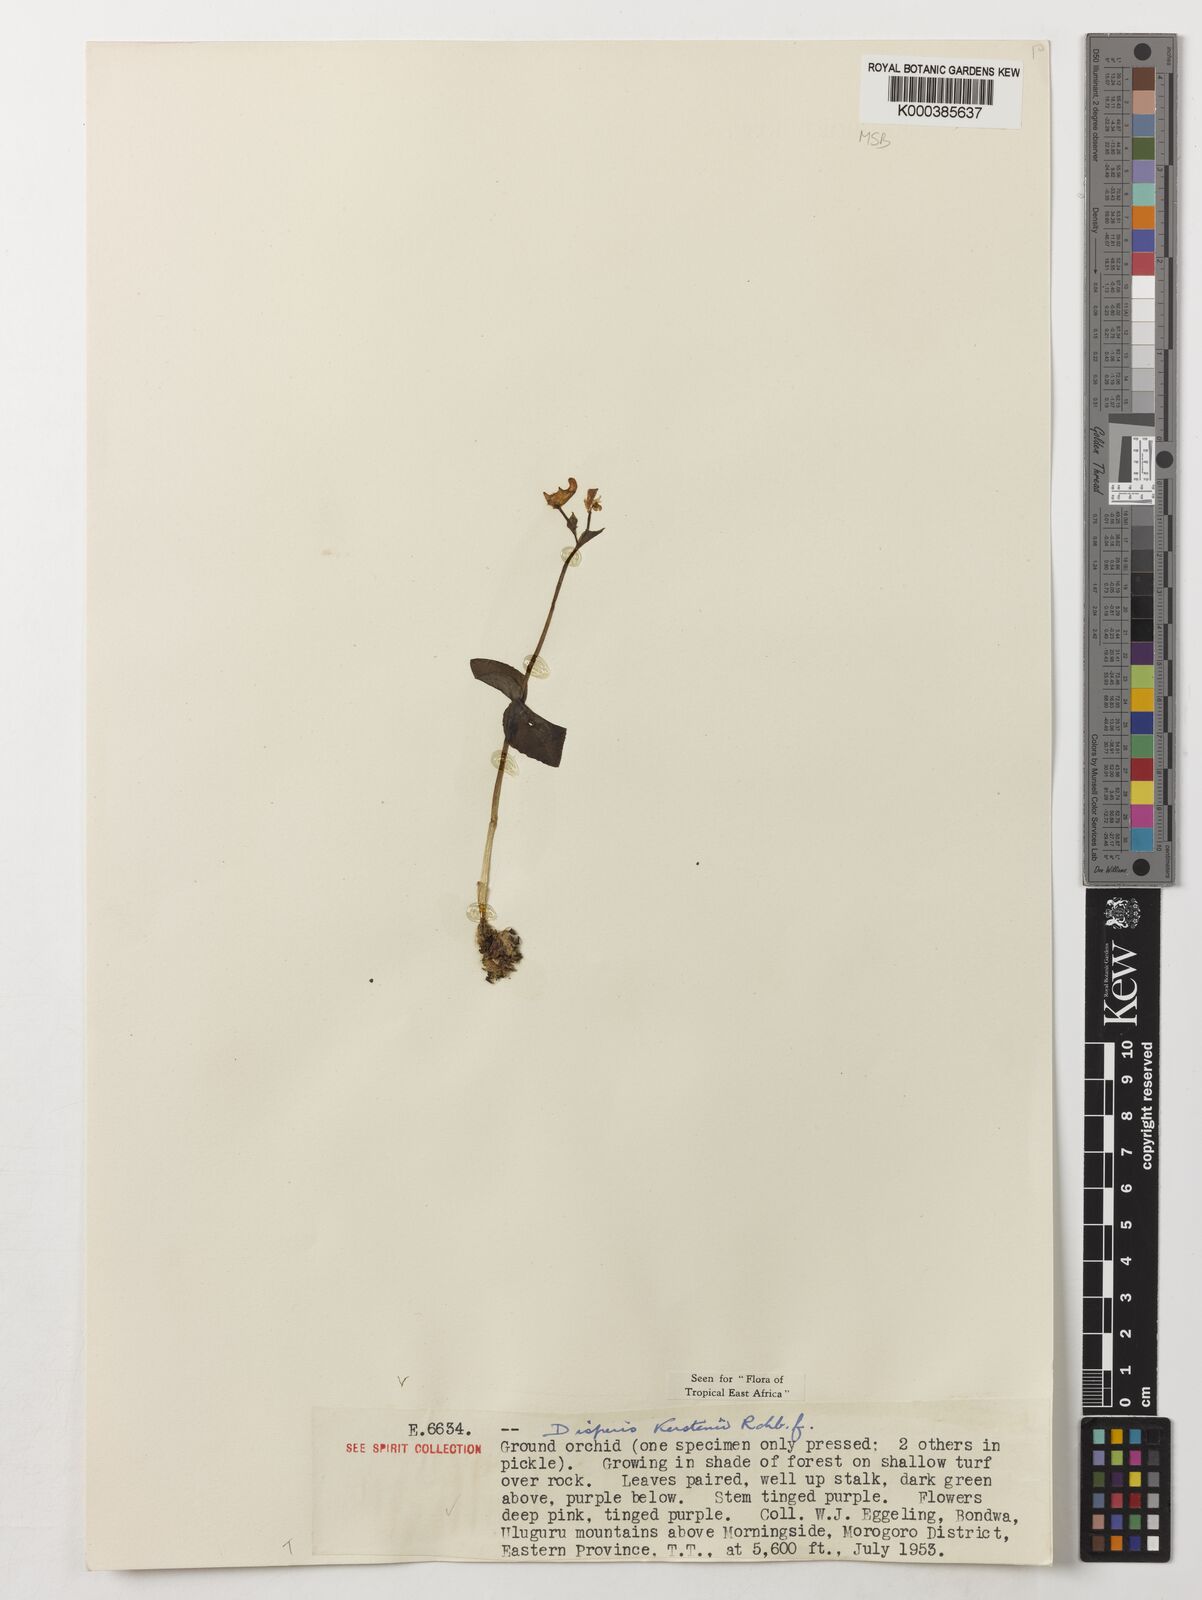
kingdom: Plantae
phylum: Tracheophyta
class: Liliopsida
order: Asparagales
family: Orchidaceae
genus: Disperis
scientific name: Disperis kerstenii
